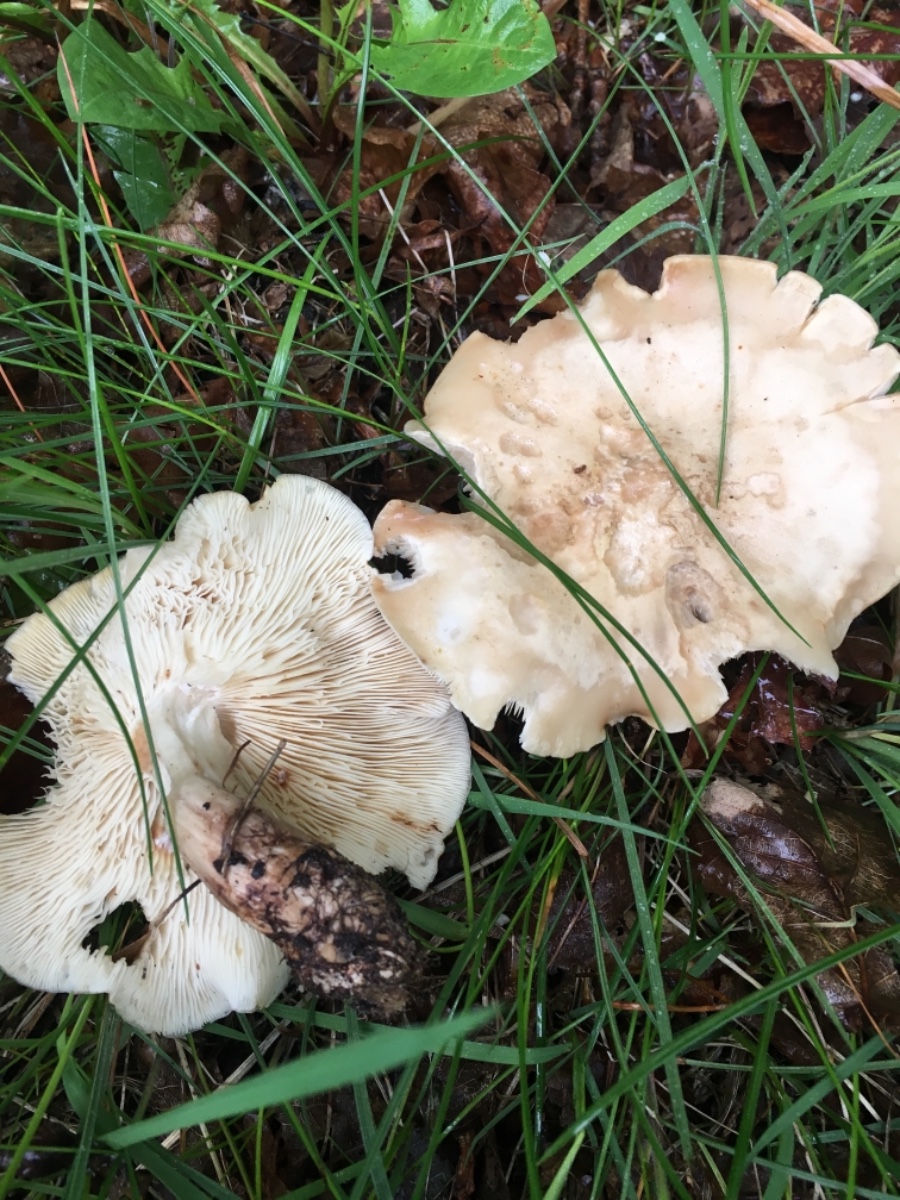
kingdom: Fungi
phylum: Basidiomycota
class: Agaricomycetes
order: Agaricales
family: Lyophyllaceae
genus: Calocybe
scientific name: Calocybe gambosa
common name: vårmusseron
